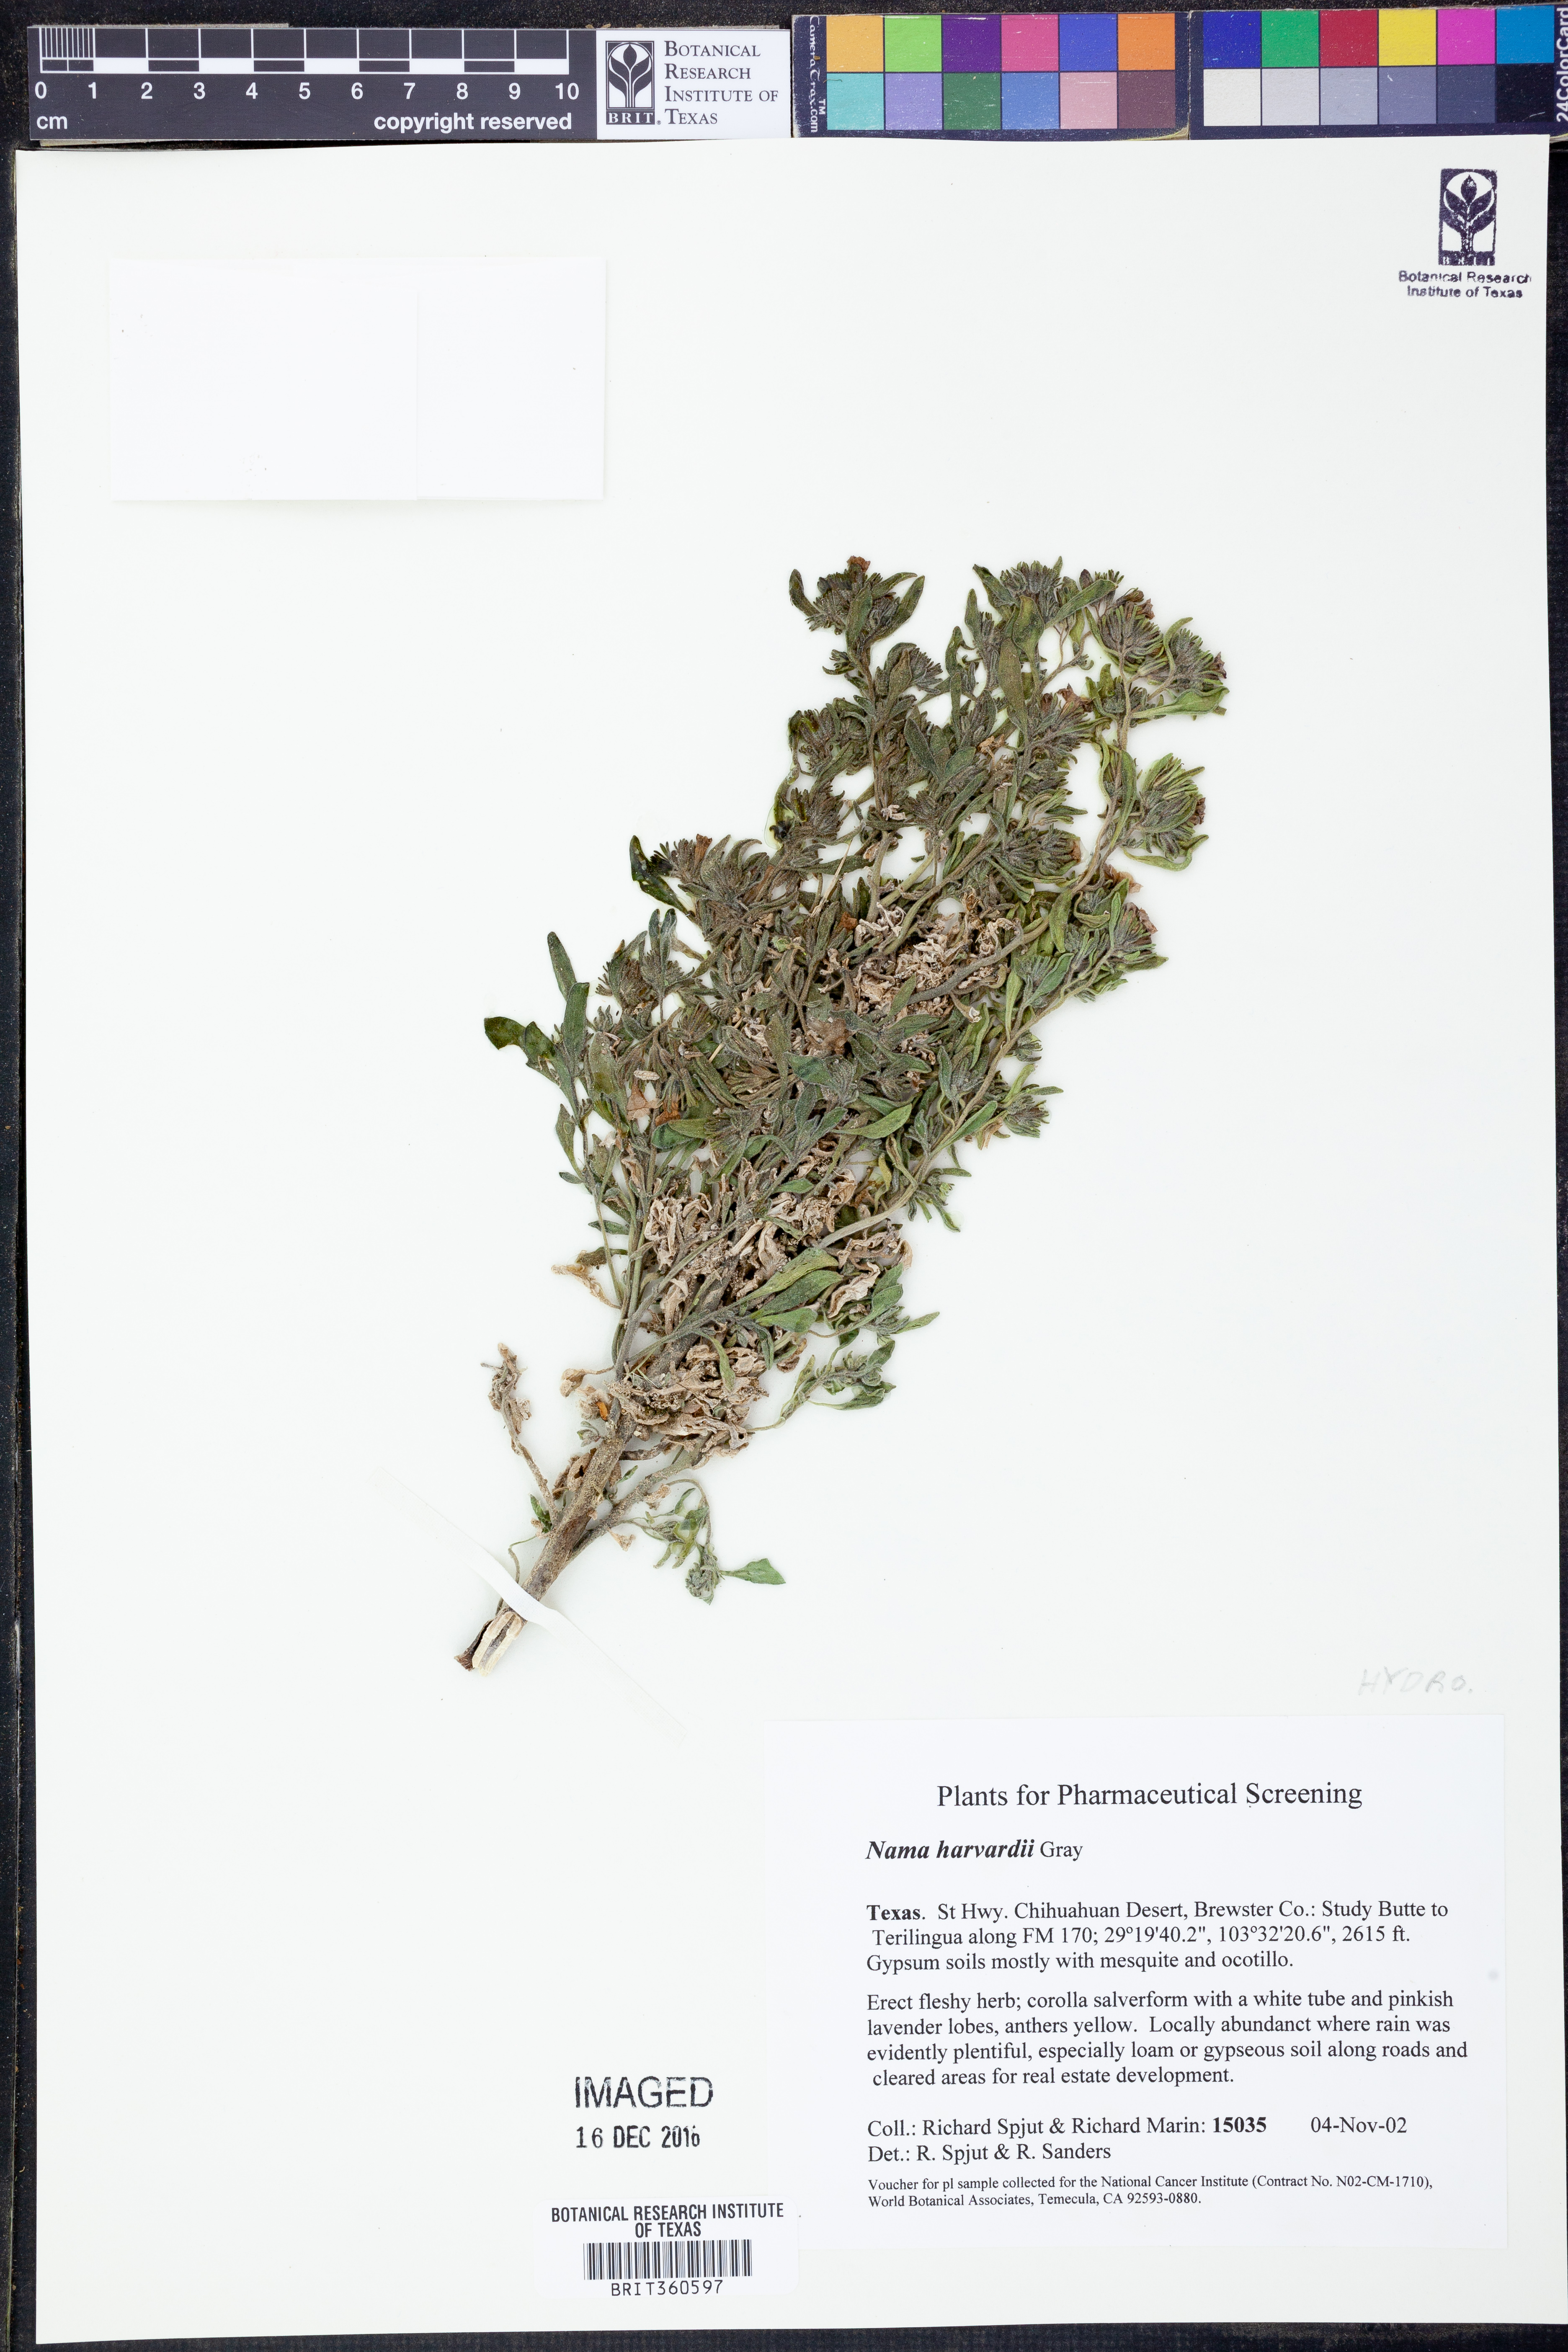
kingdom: Plantae
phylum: Tracheophyta
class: Magnoliopsida
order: Boraginales
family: Namaceae
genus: Nama
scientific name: Nama havardii
